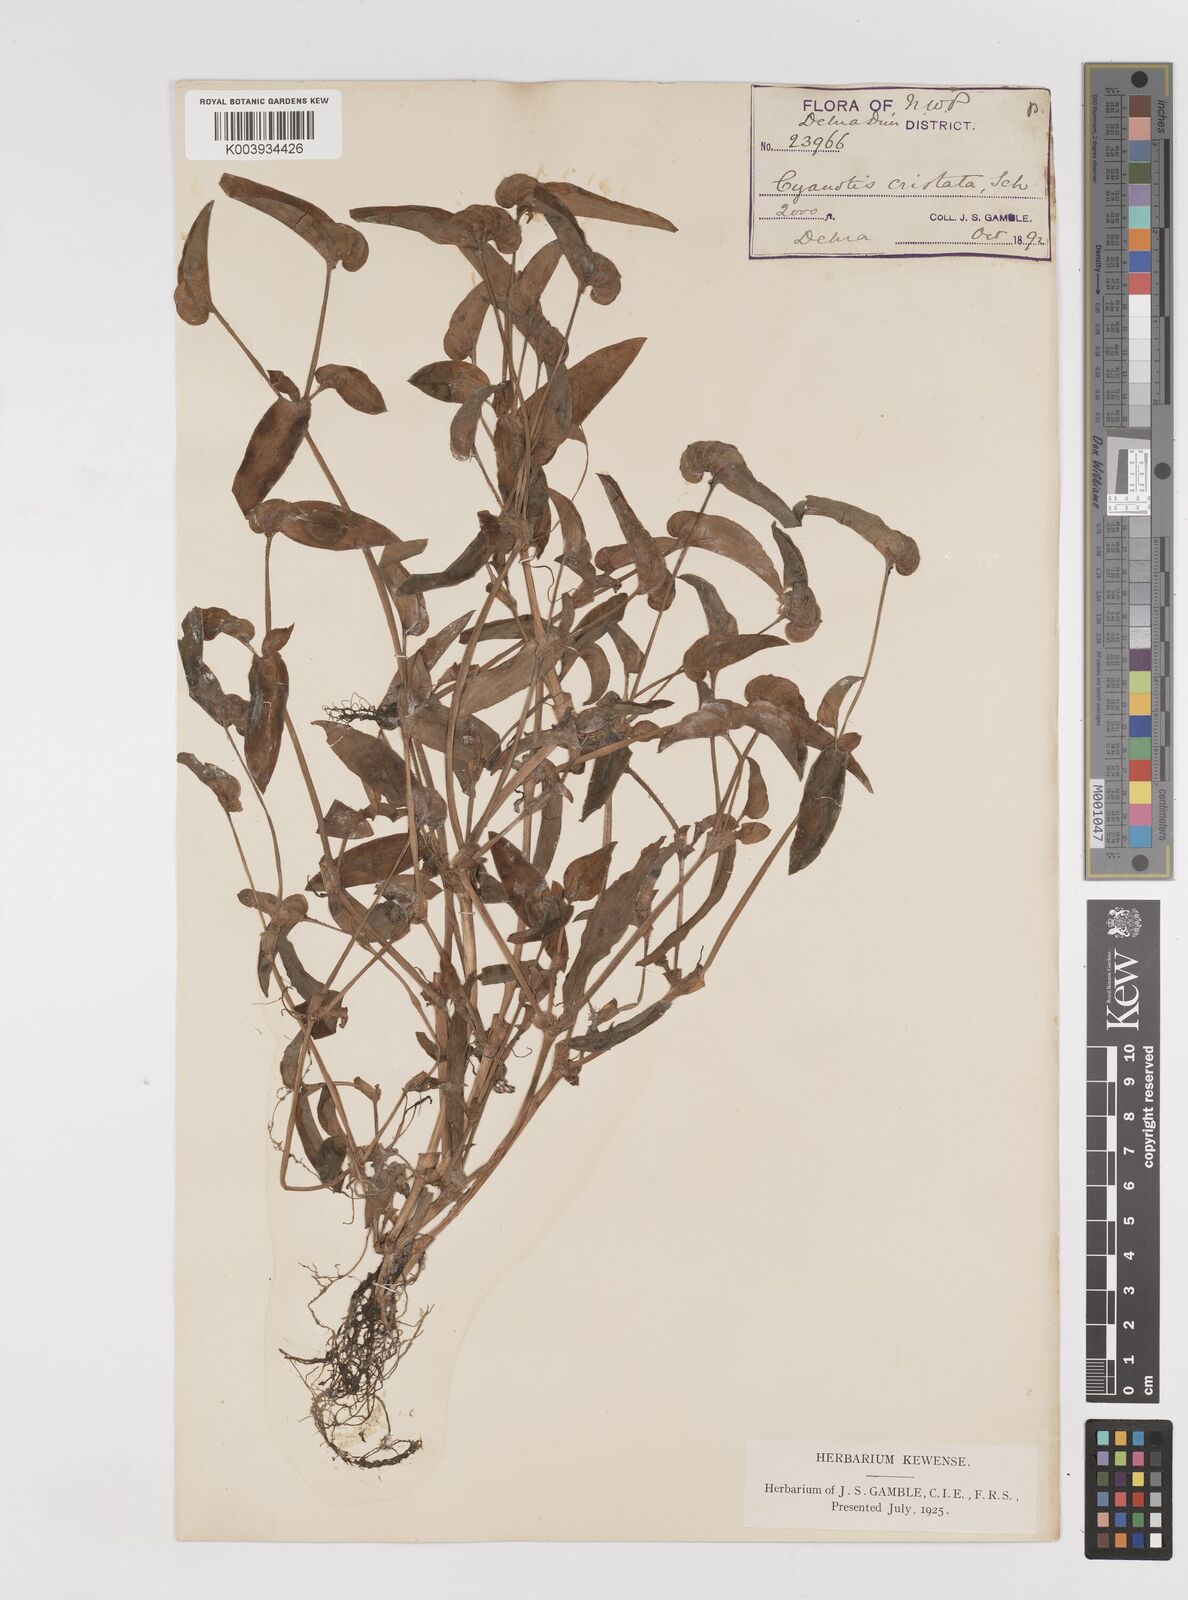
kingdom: Plantae
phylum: Tracheophyta
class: Liliopsida
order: Commelinales
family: Commelinaceae
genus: Cyanotis
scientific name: Cyanotis cristata
